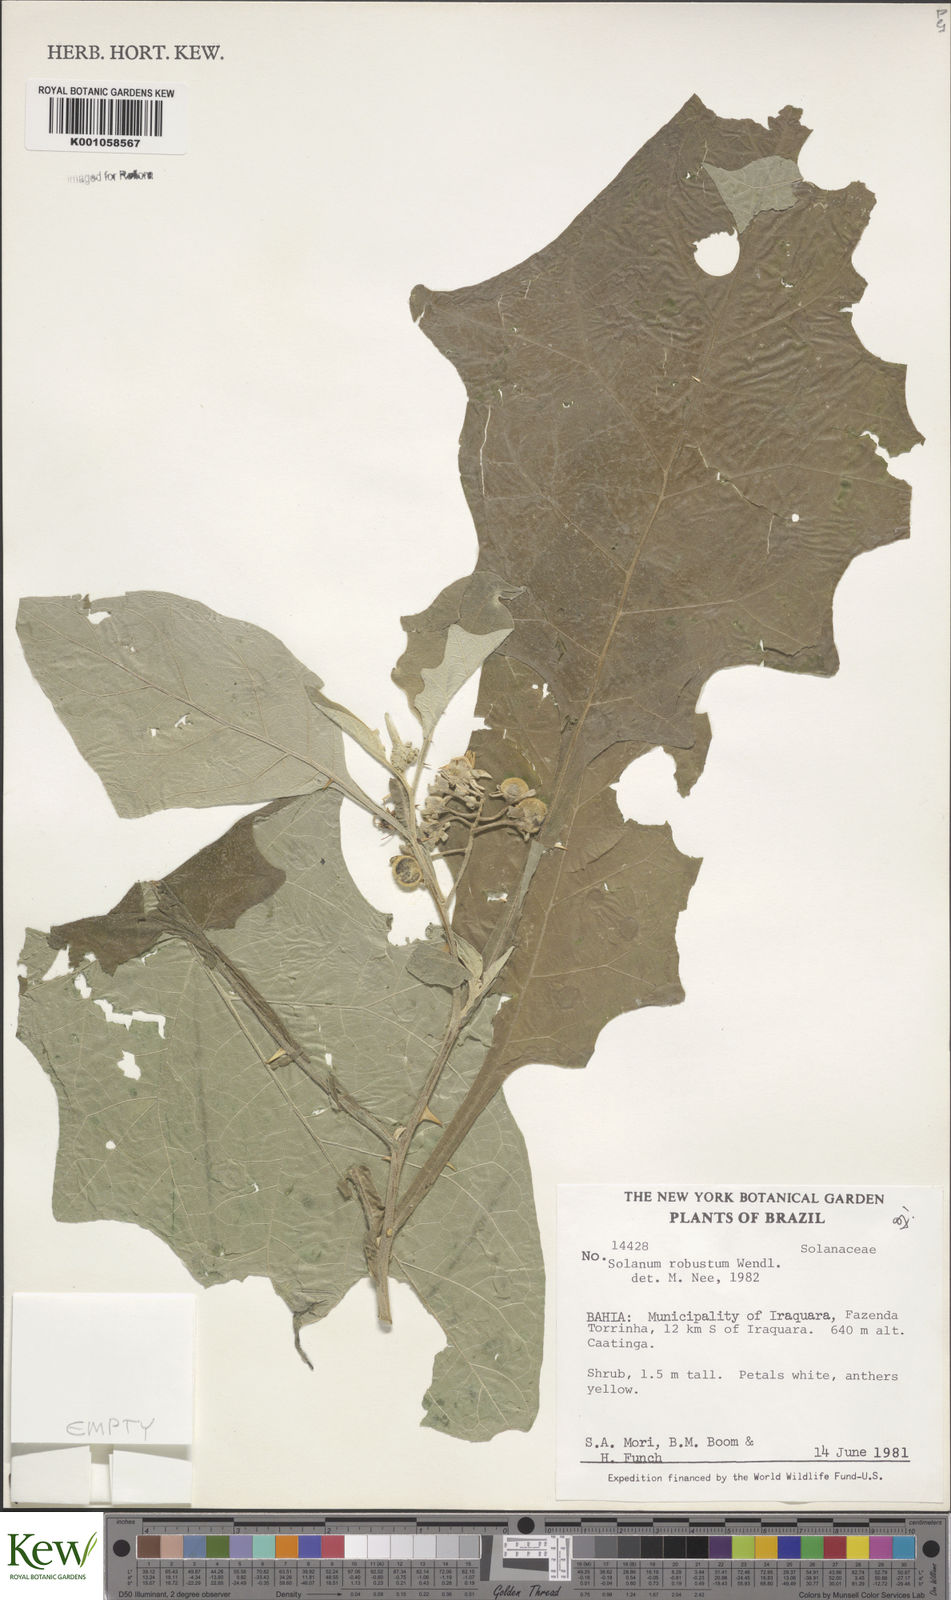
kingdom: Plantae
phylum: Tracheophyta
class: Magnoliopsida
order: Solanales
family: Solanaceae
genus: Solanum
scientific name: Solanum robustum
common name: Shrubby nightshade
